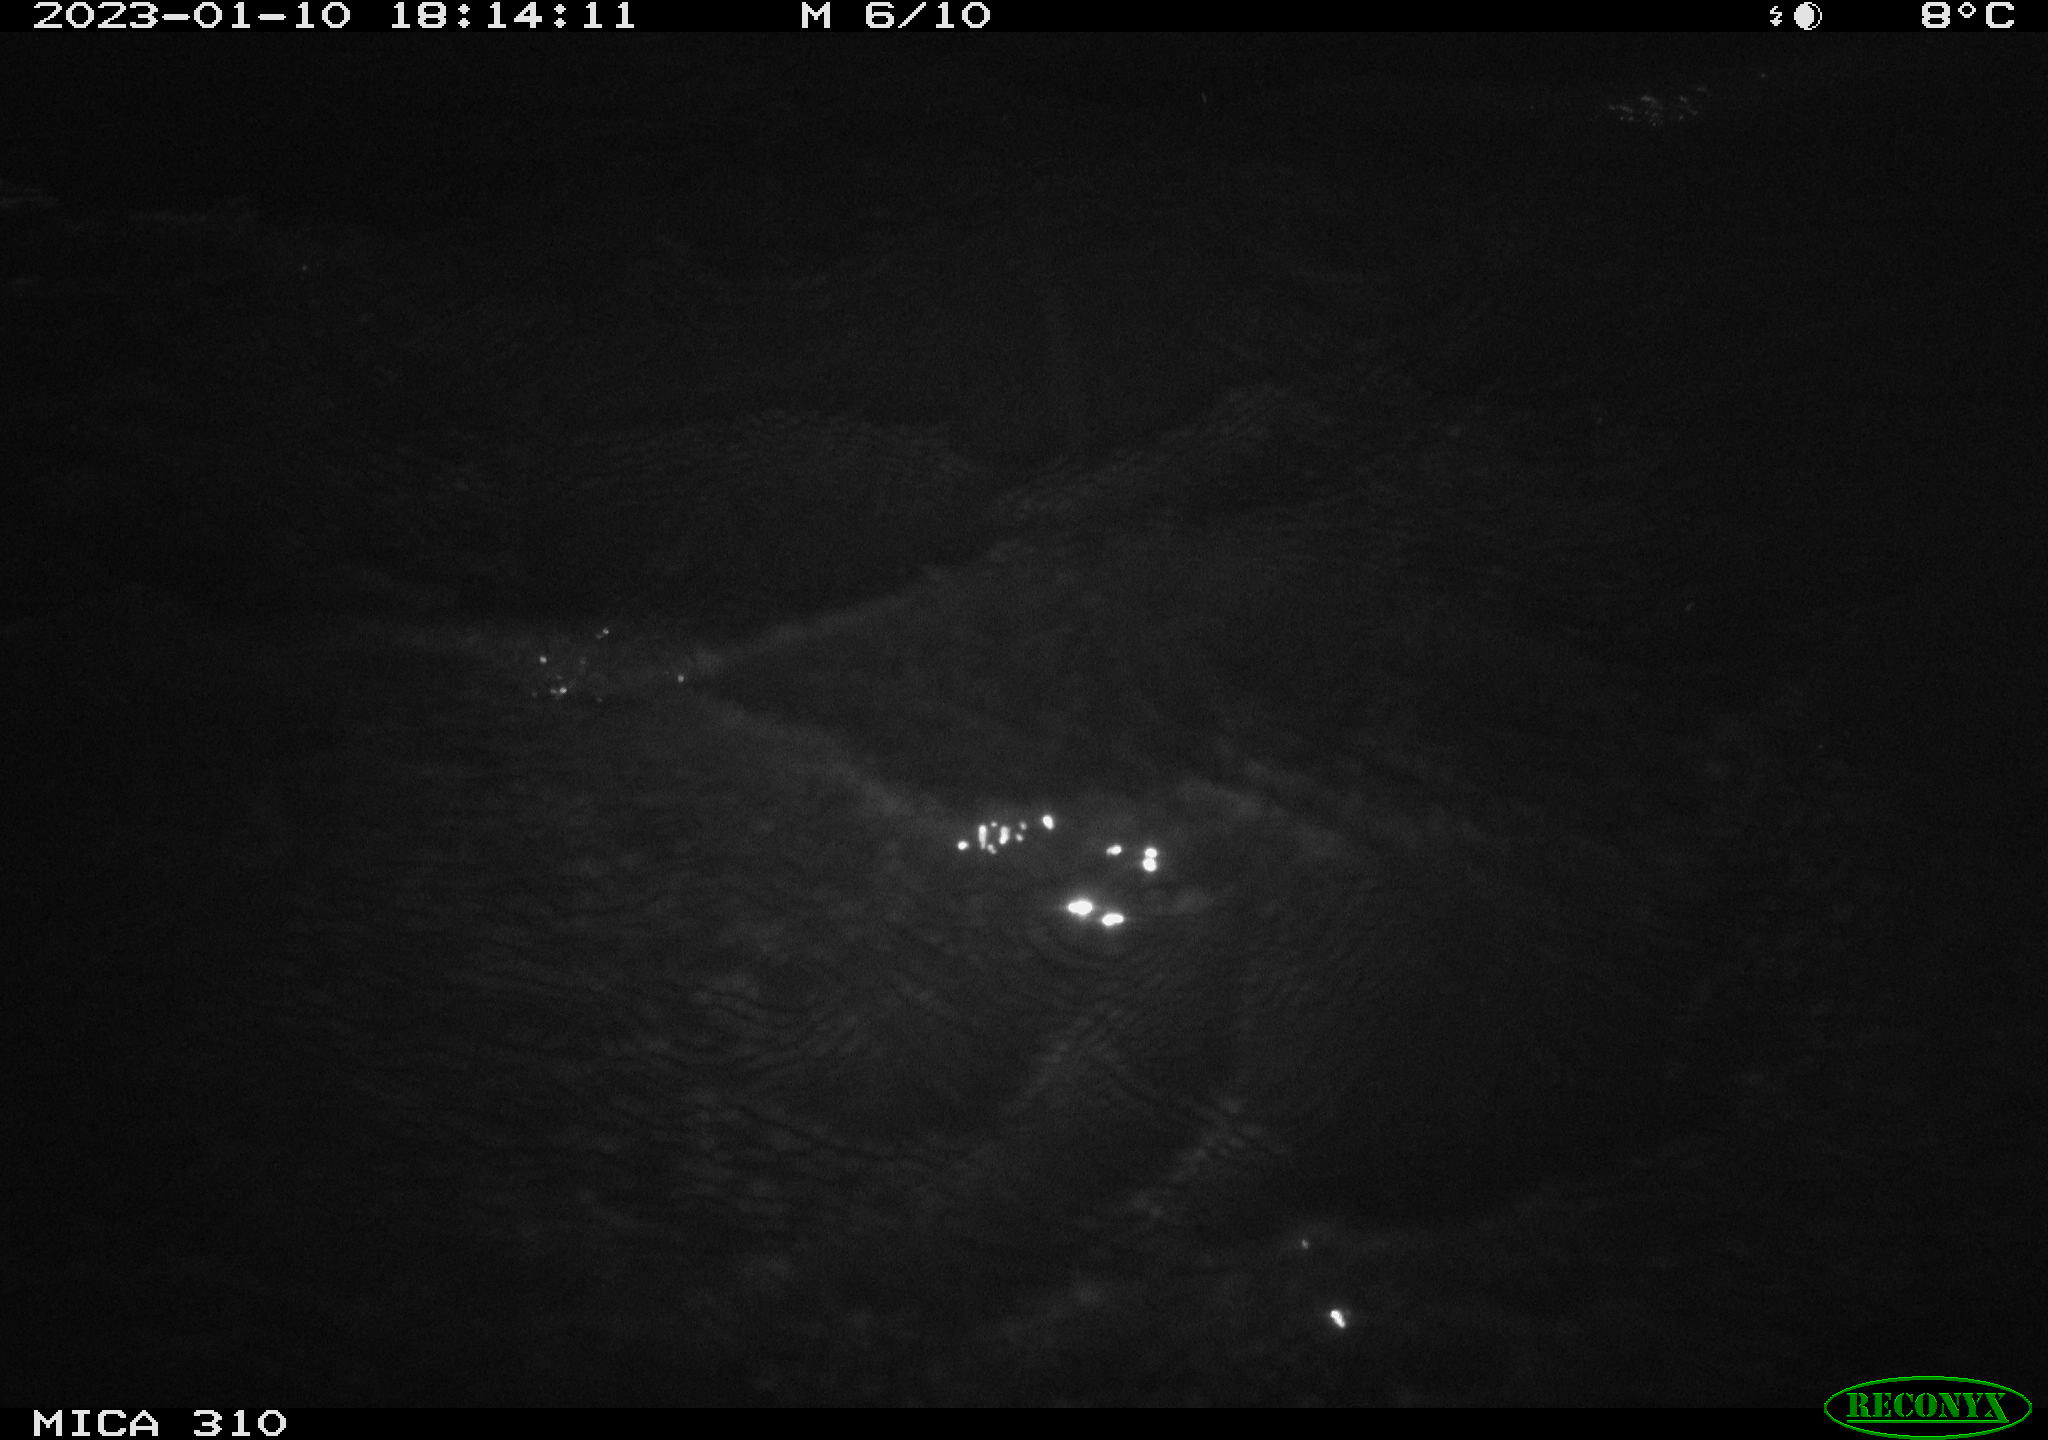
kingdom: Animalia
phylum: Chordata
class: Mammalia
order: Rodentia
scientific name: Rodentia
